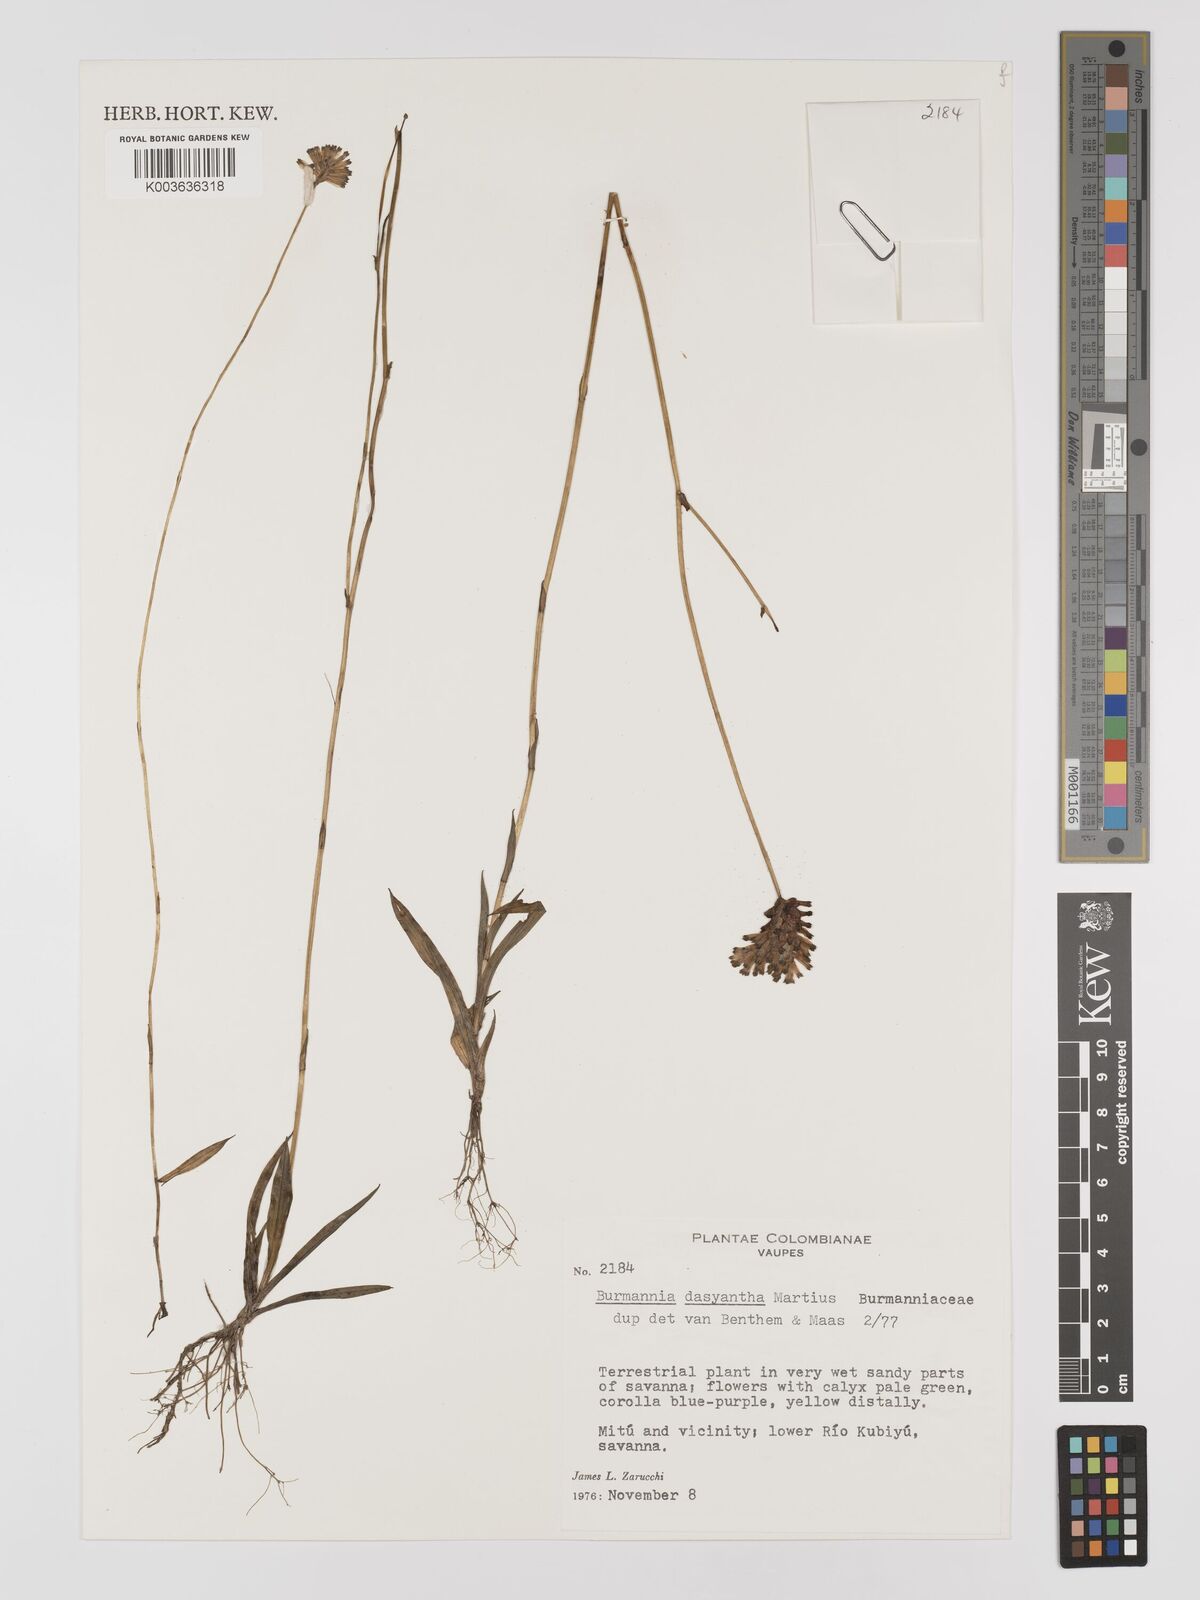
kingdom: Plantae
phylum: Tracheophyta
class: Liliopsida
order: Dioscoreales
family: Burmanniaceae
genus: Burmannia
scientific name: Burmannia dasyantha
